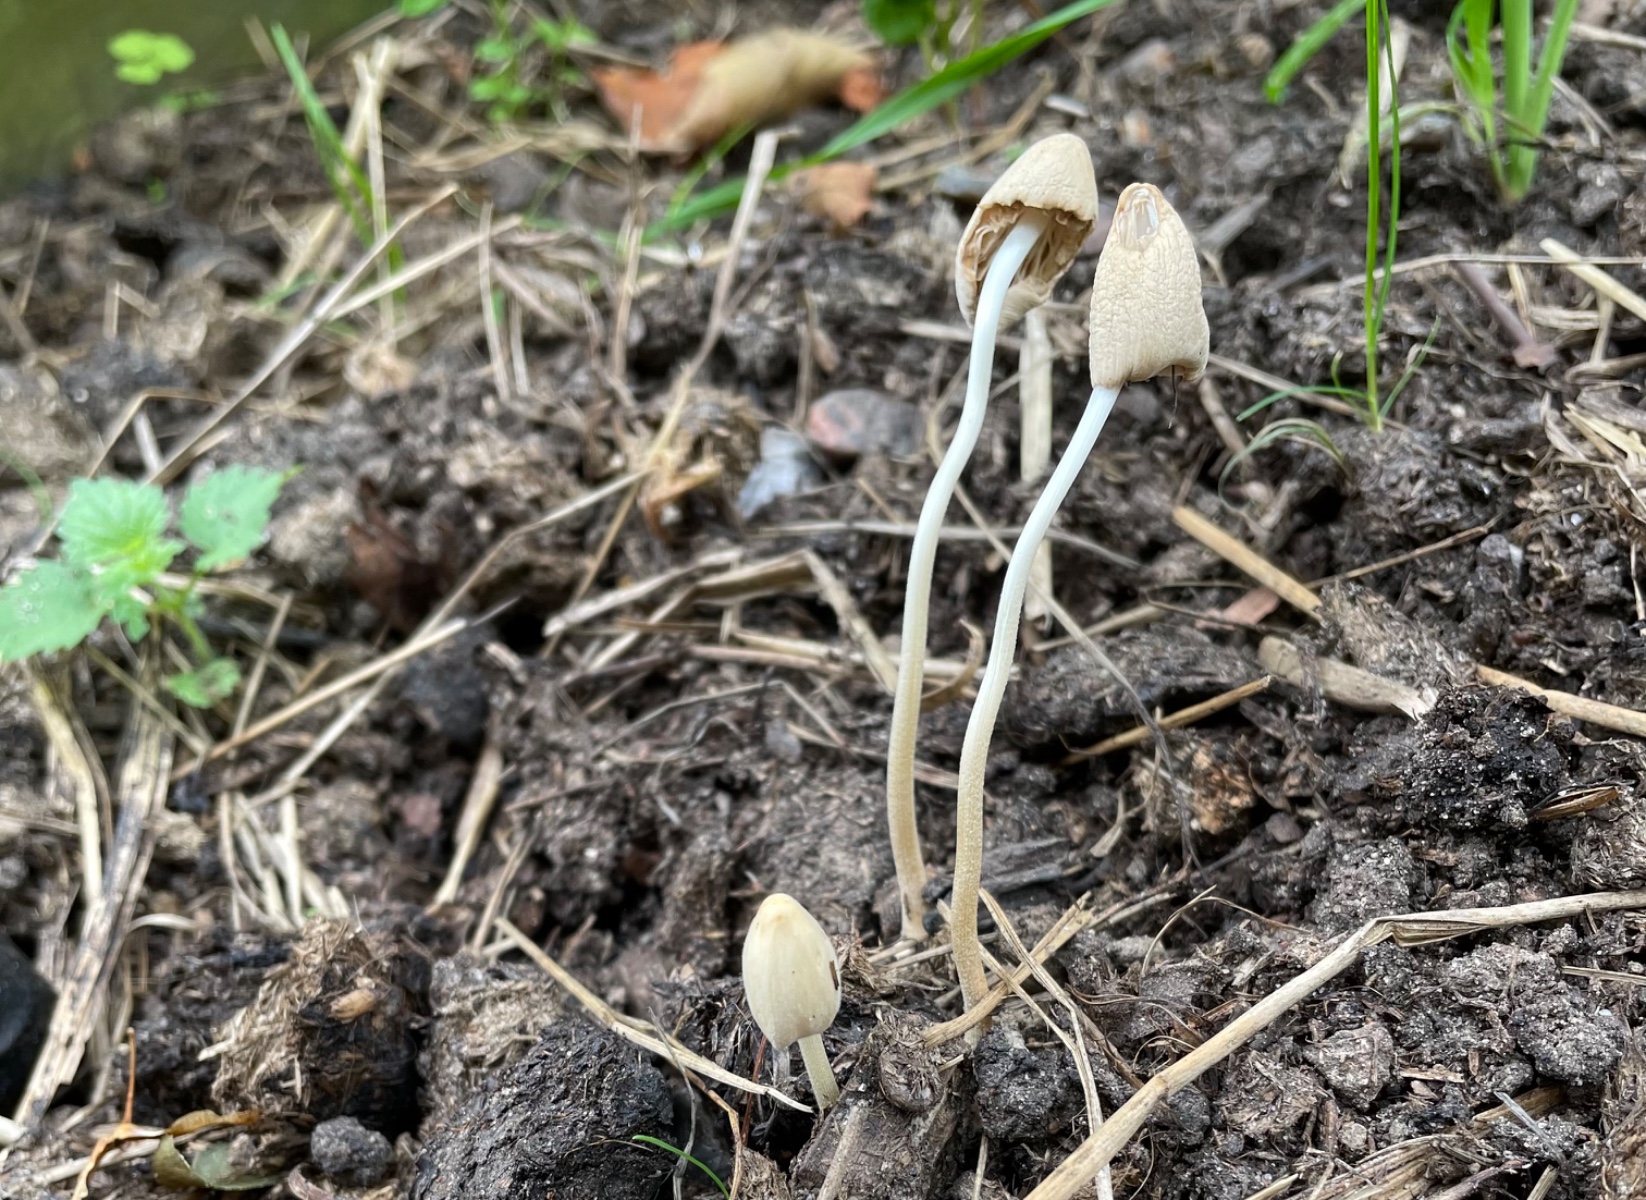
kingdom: Fungi
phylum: Basidiomycota
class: Agaricomycetes
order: Agaricales
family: Bolbitiaceae
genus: Conocybe
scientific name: Conocybe
